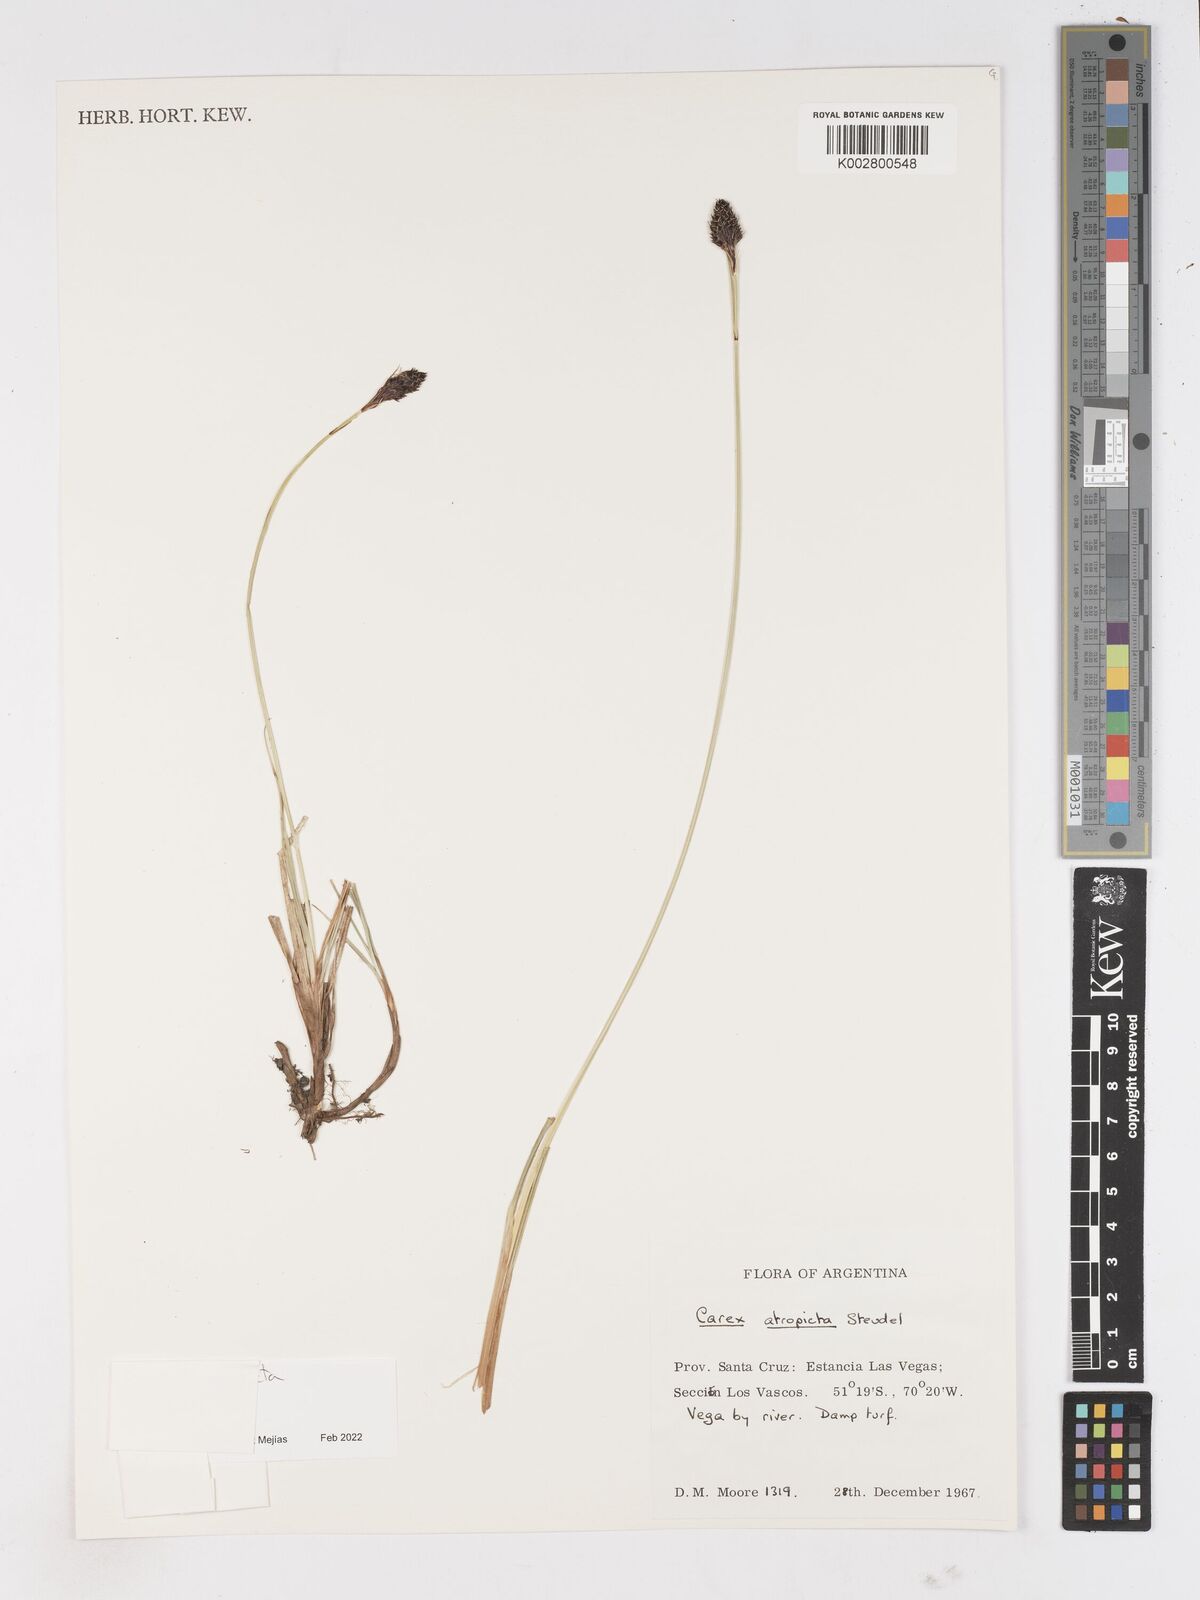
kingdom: Plantae
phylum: Tracheophyta
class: Liliopsida
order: Poales
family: Cyperaceae
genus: Carex
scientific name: Carex atropicta
